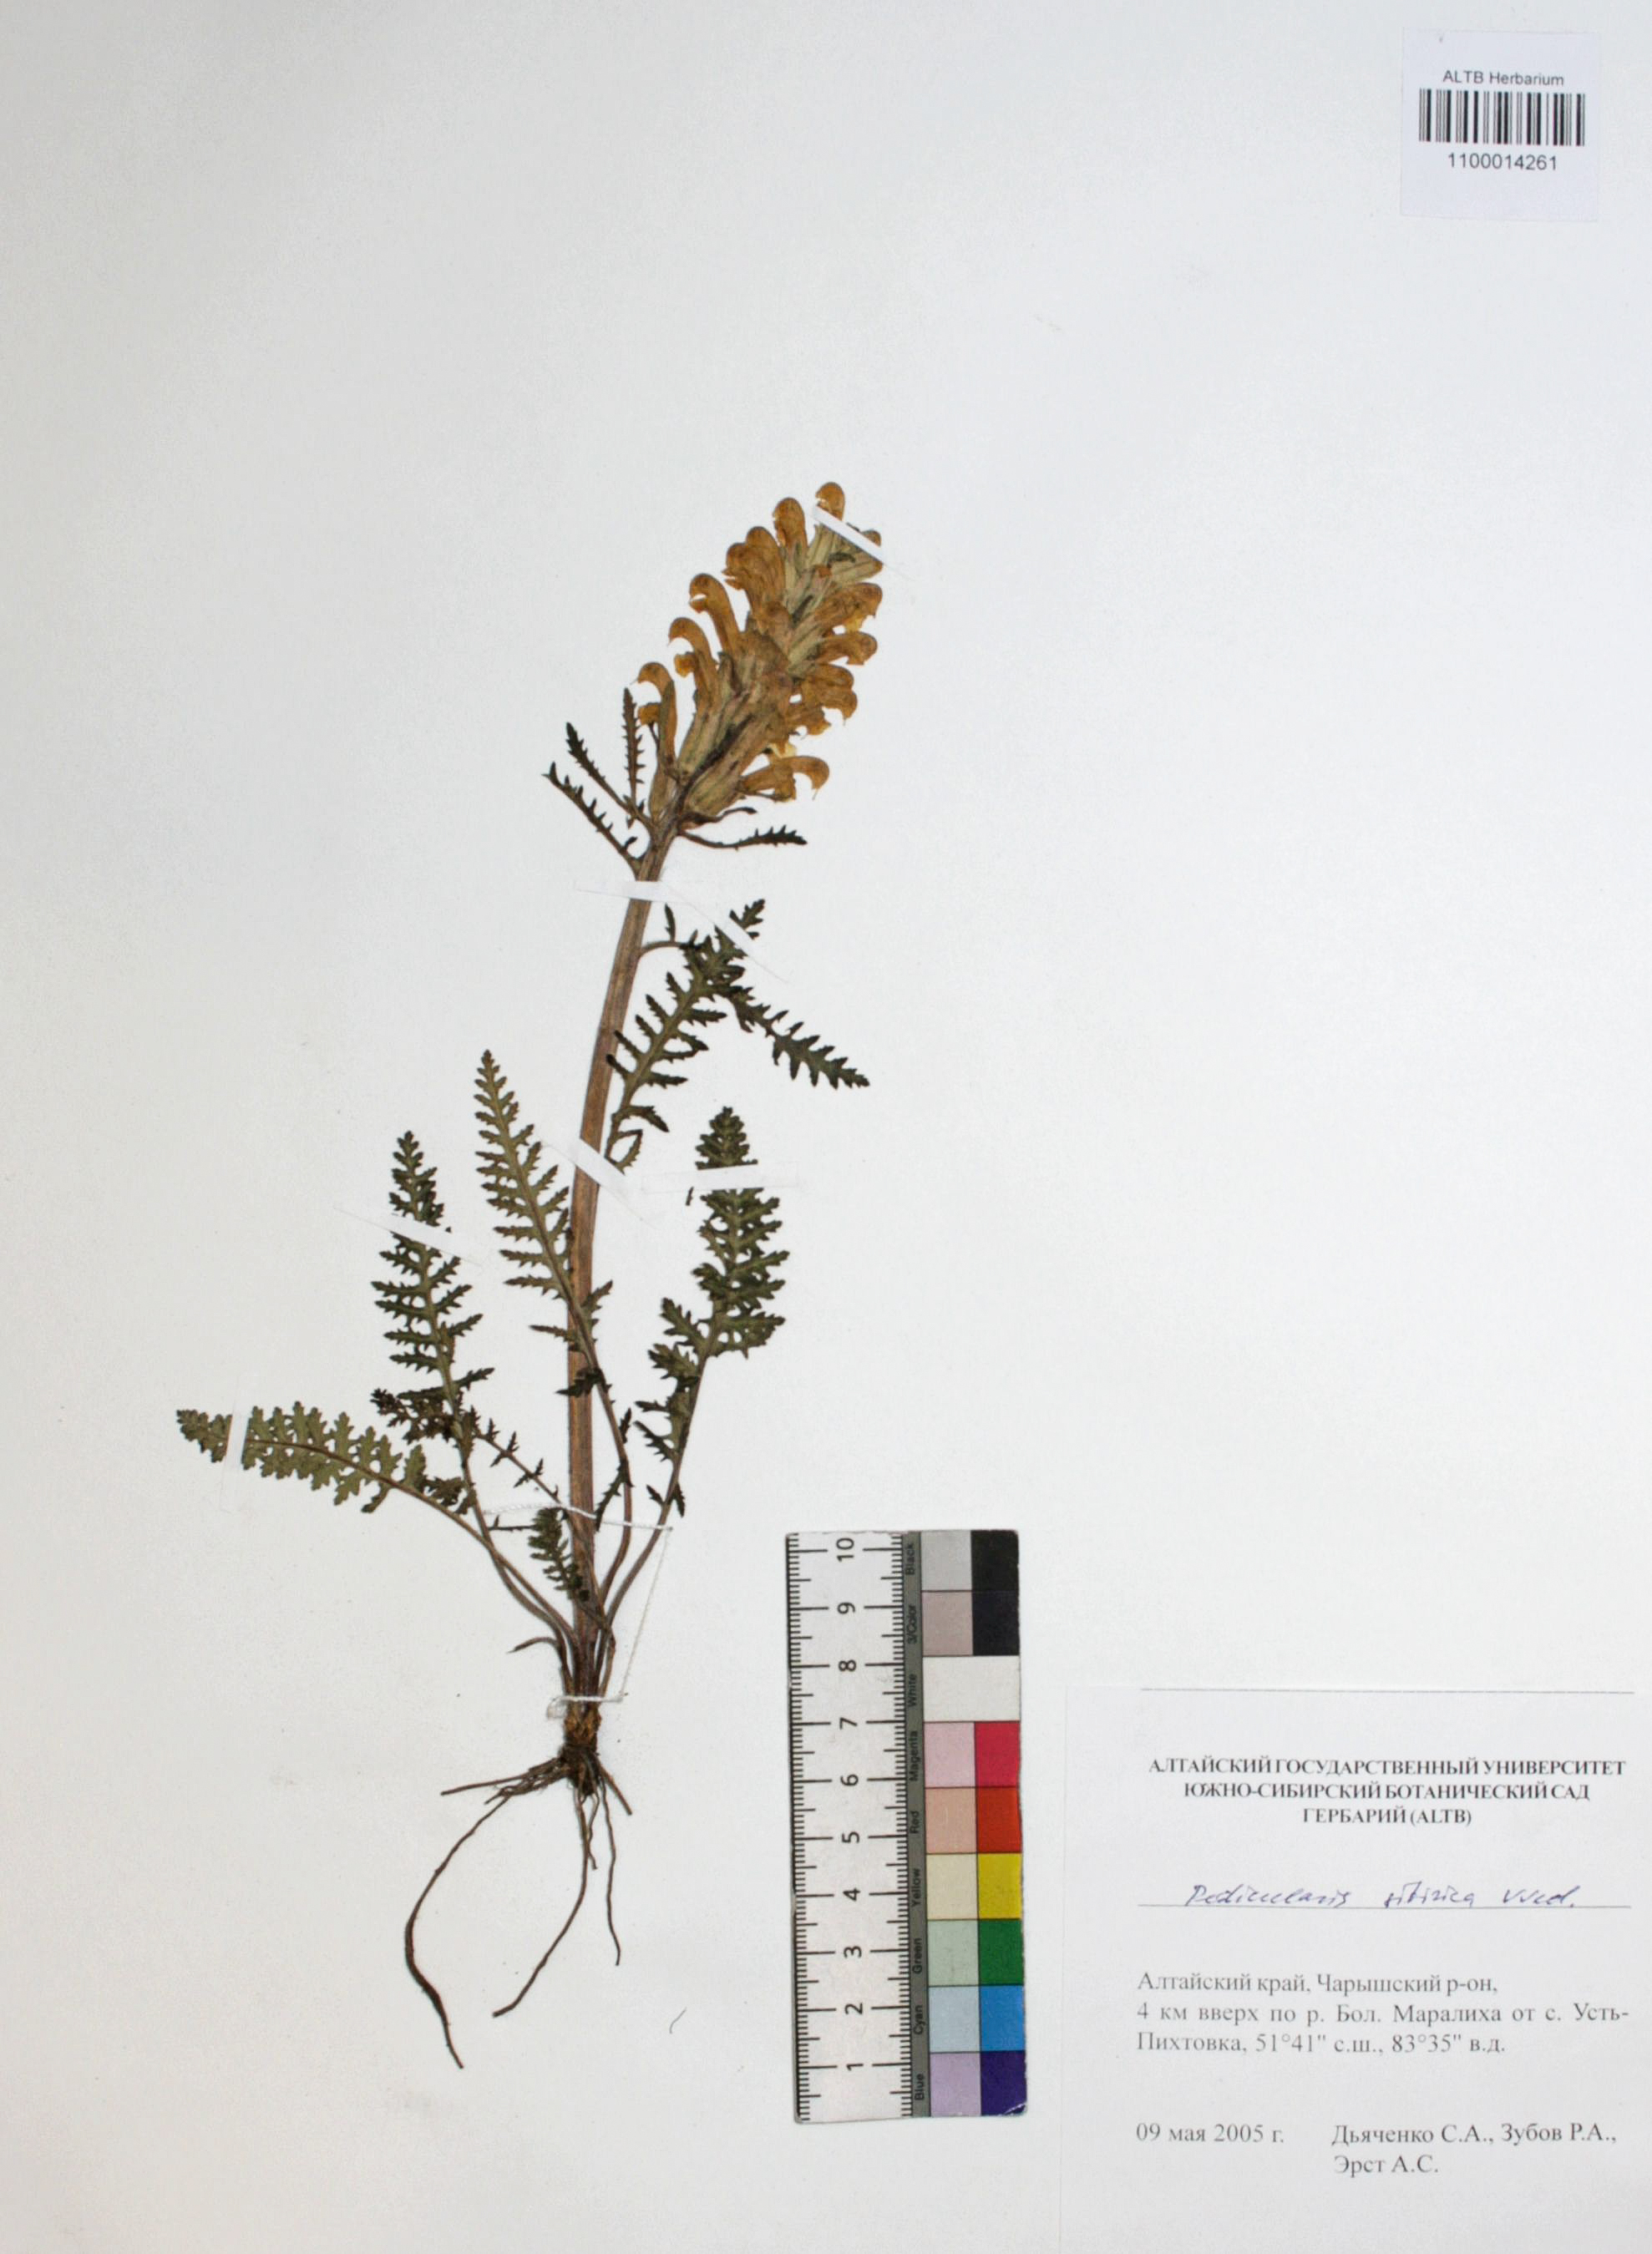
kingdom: Plantae
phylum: Tracheophyta
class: Magnoliopsida
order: Lamiales
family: Orobanchaceae
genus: Pedicularis
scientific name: Pedicularis sibirica
